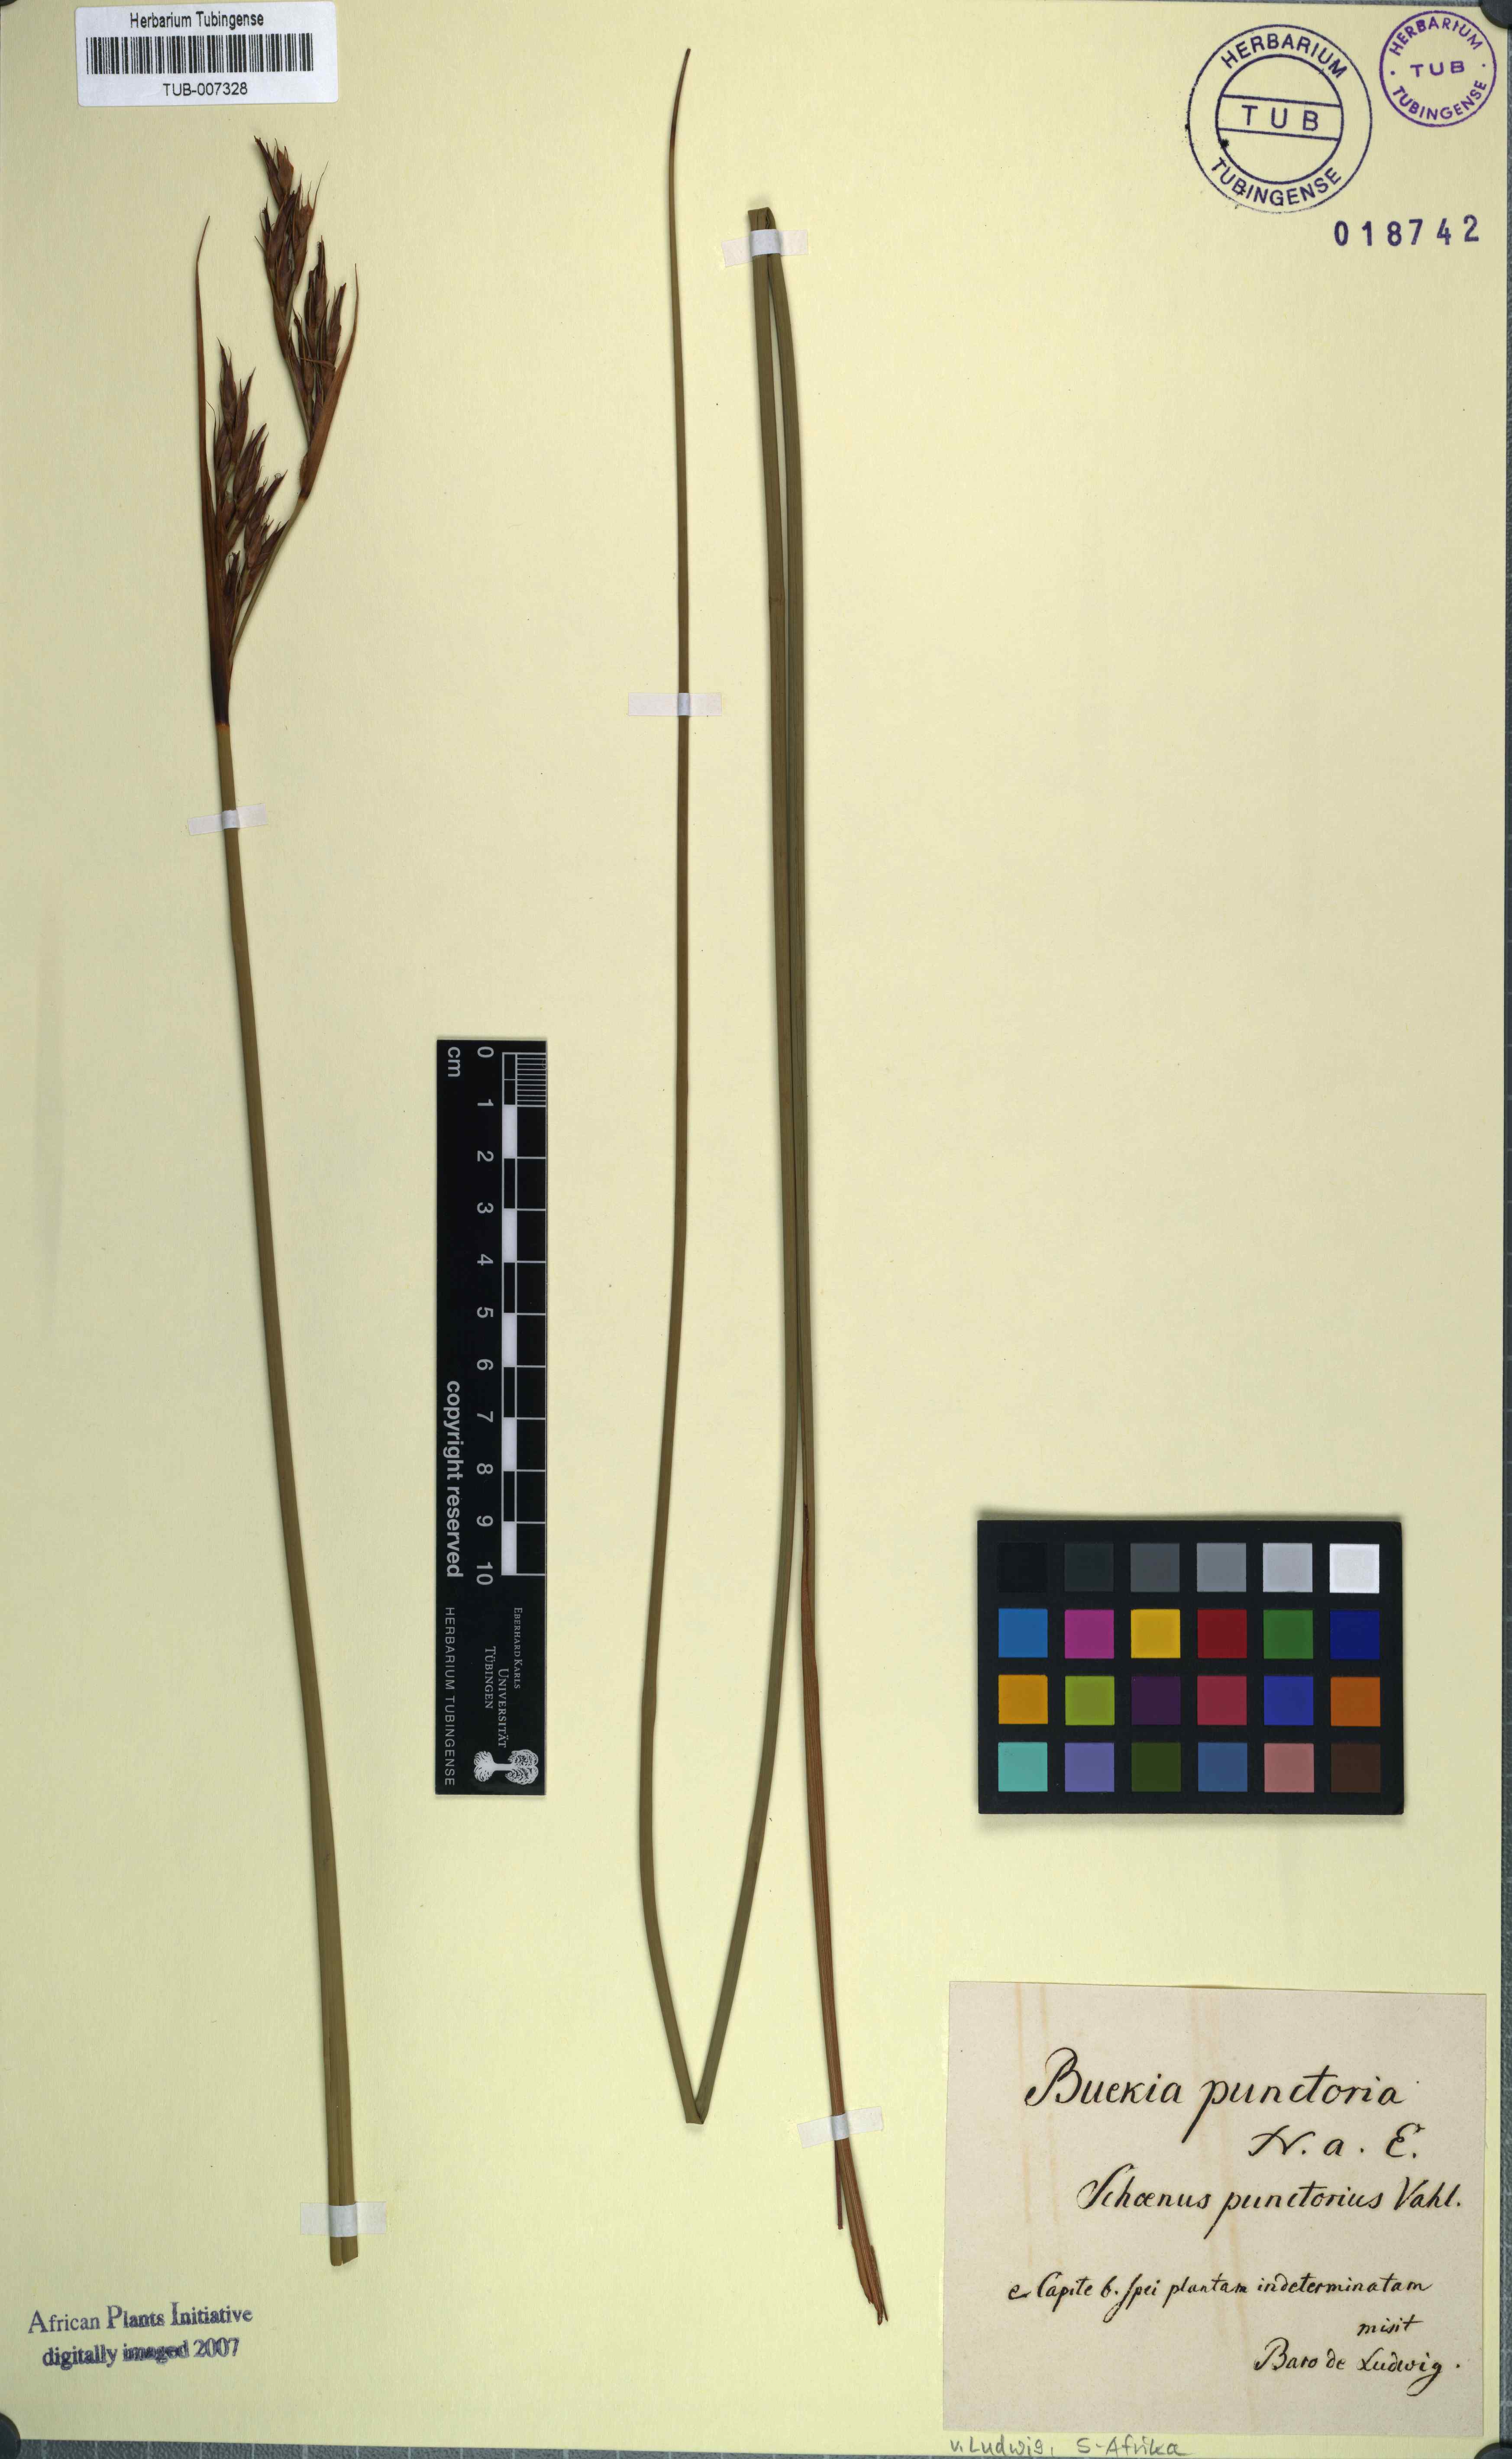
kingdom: Plantae
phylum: Tracheophyta
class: Liliopsida
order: Poales
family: Cyperaceae
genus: Neesenbeckia
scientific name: Neesenbeckia punctoria
